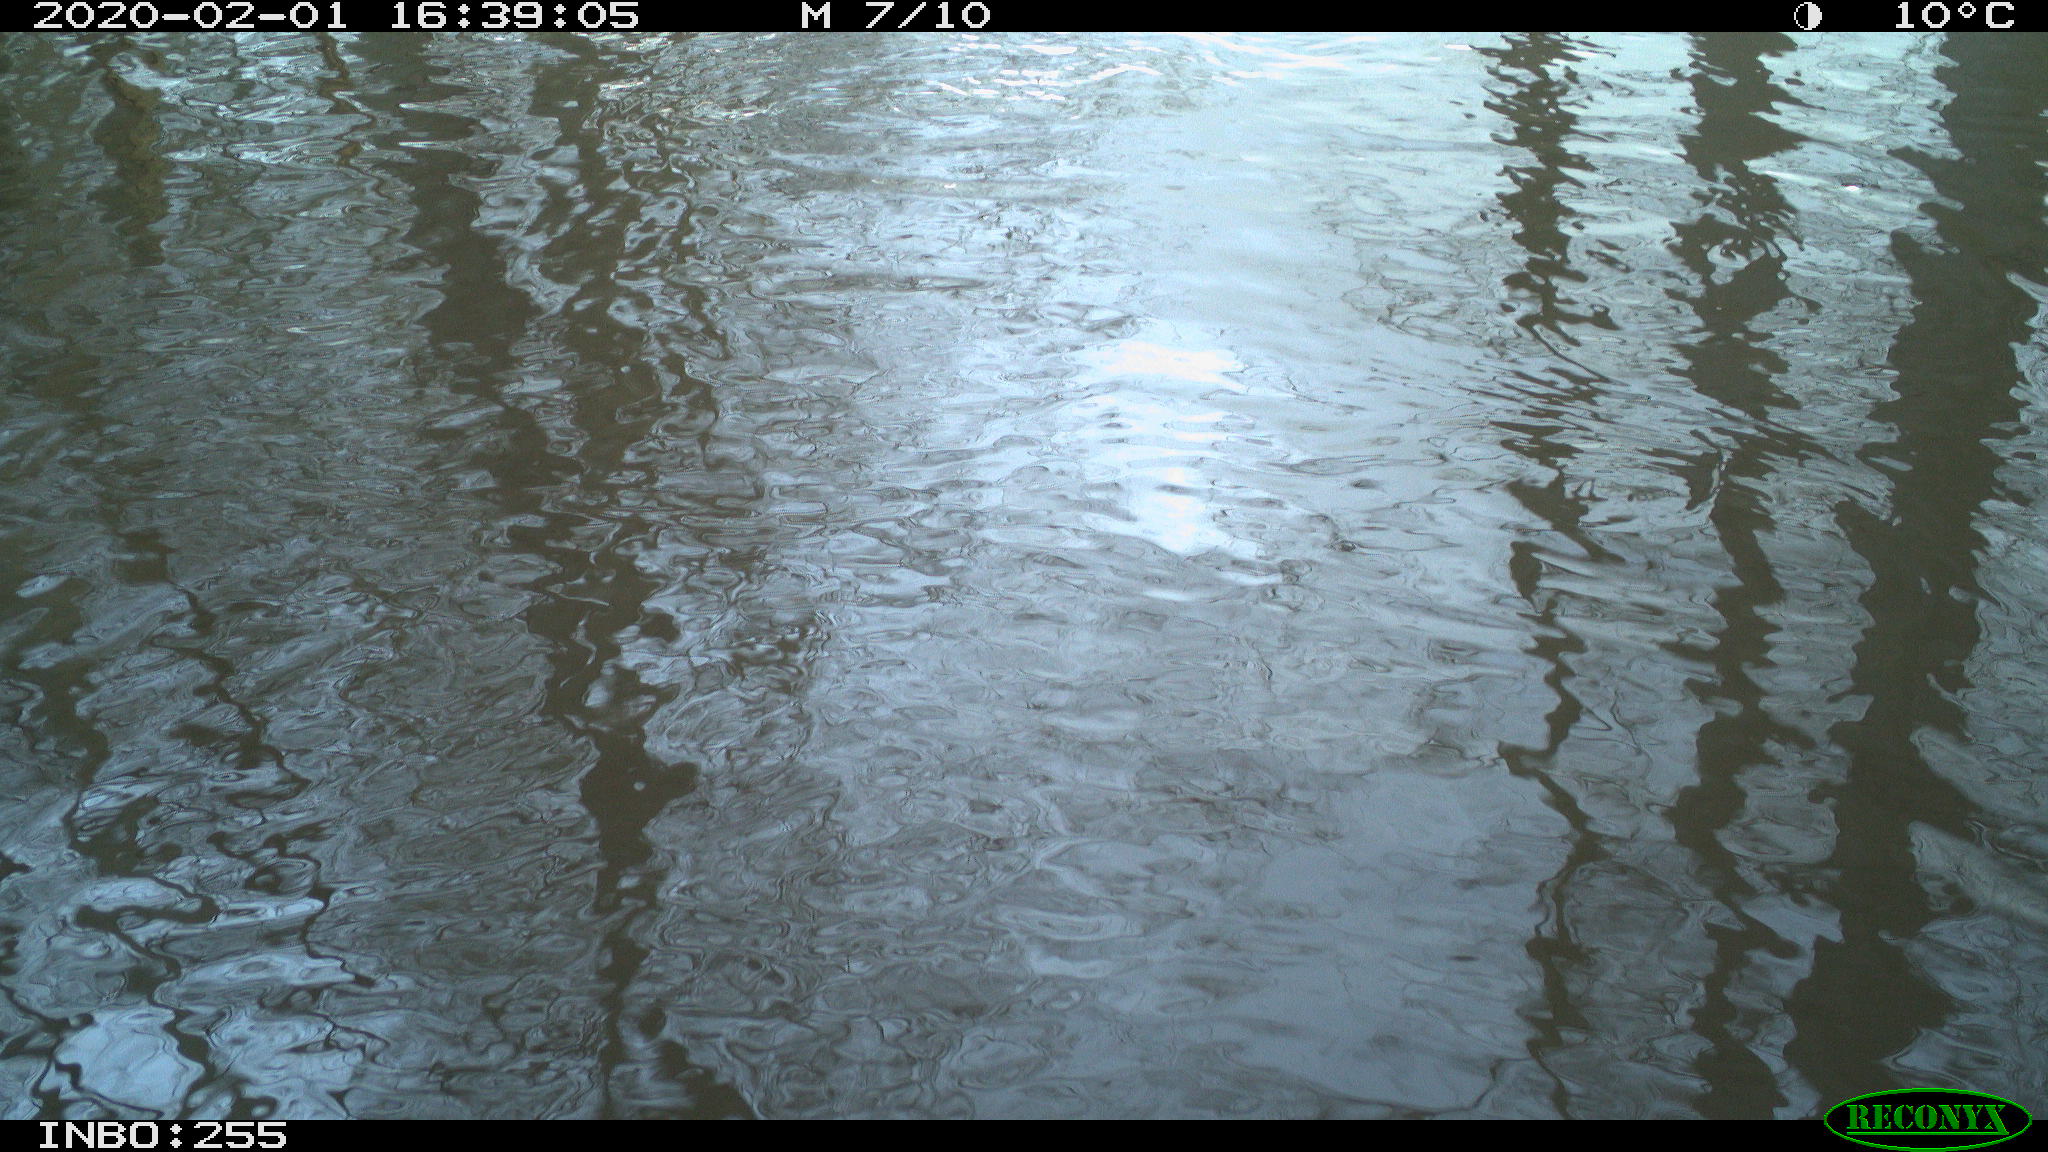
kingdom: Animalia
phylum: Chordata
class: Aves
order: Gruiformes
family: Rallidae
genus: Fulica
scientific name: Fulica atra
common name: Eurasian coot
